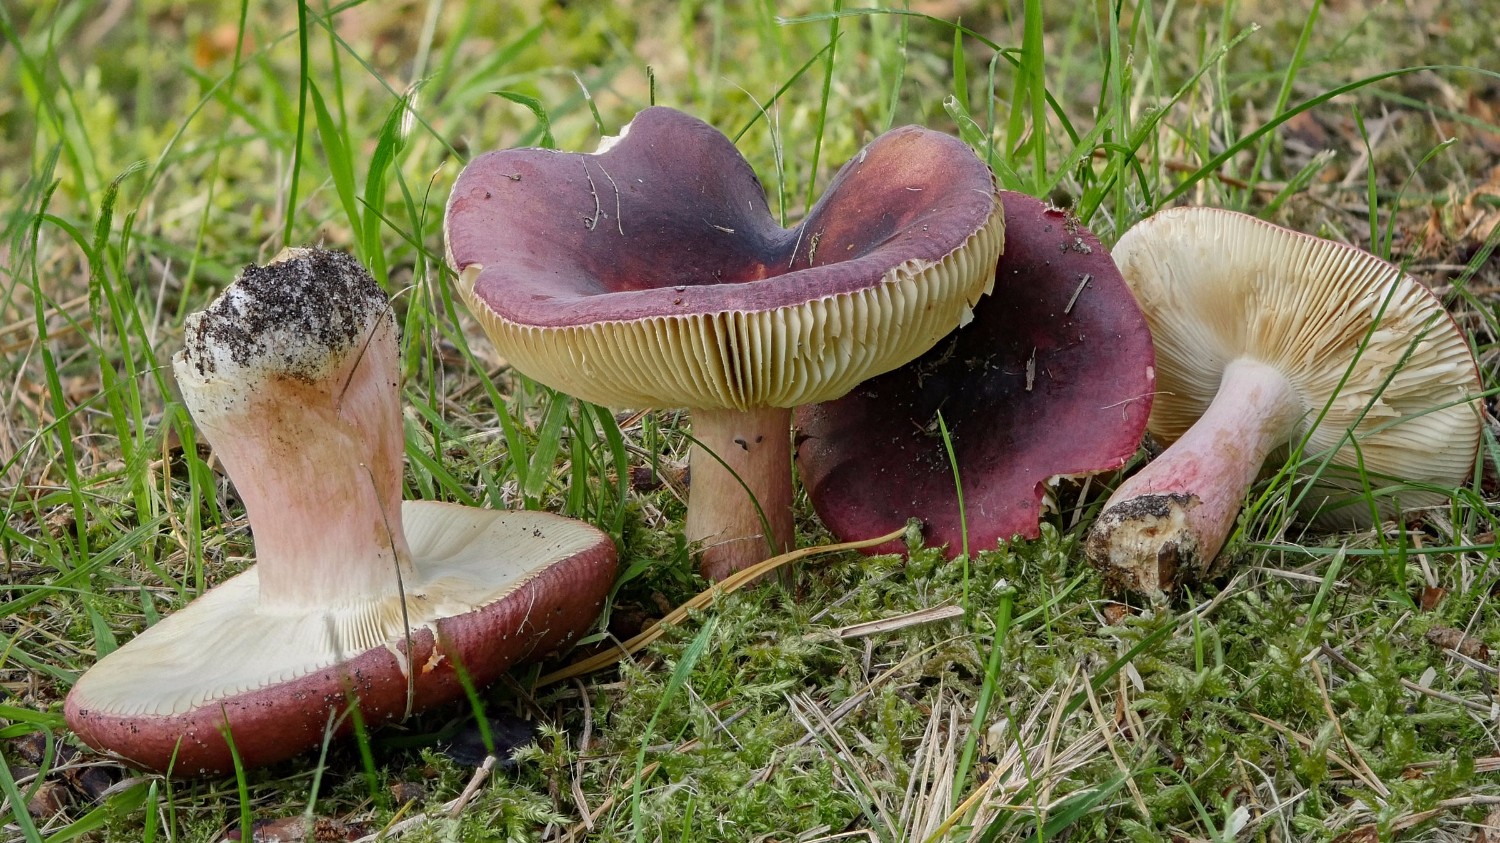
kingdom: Fungi
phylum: Basidiomycota
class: Agaricomycetes
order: Russulales
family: Russulaceae
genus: Russula
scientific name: Russula xerampelina
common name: hummer-skørhat
